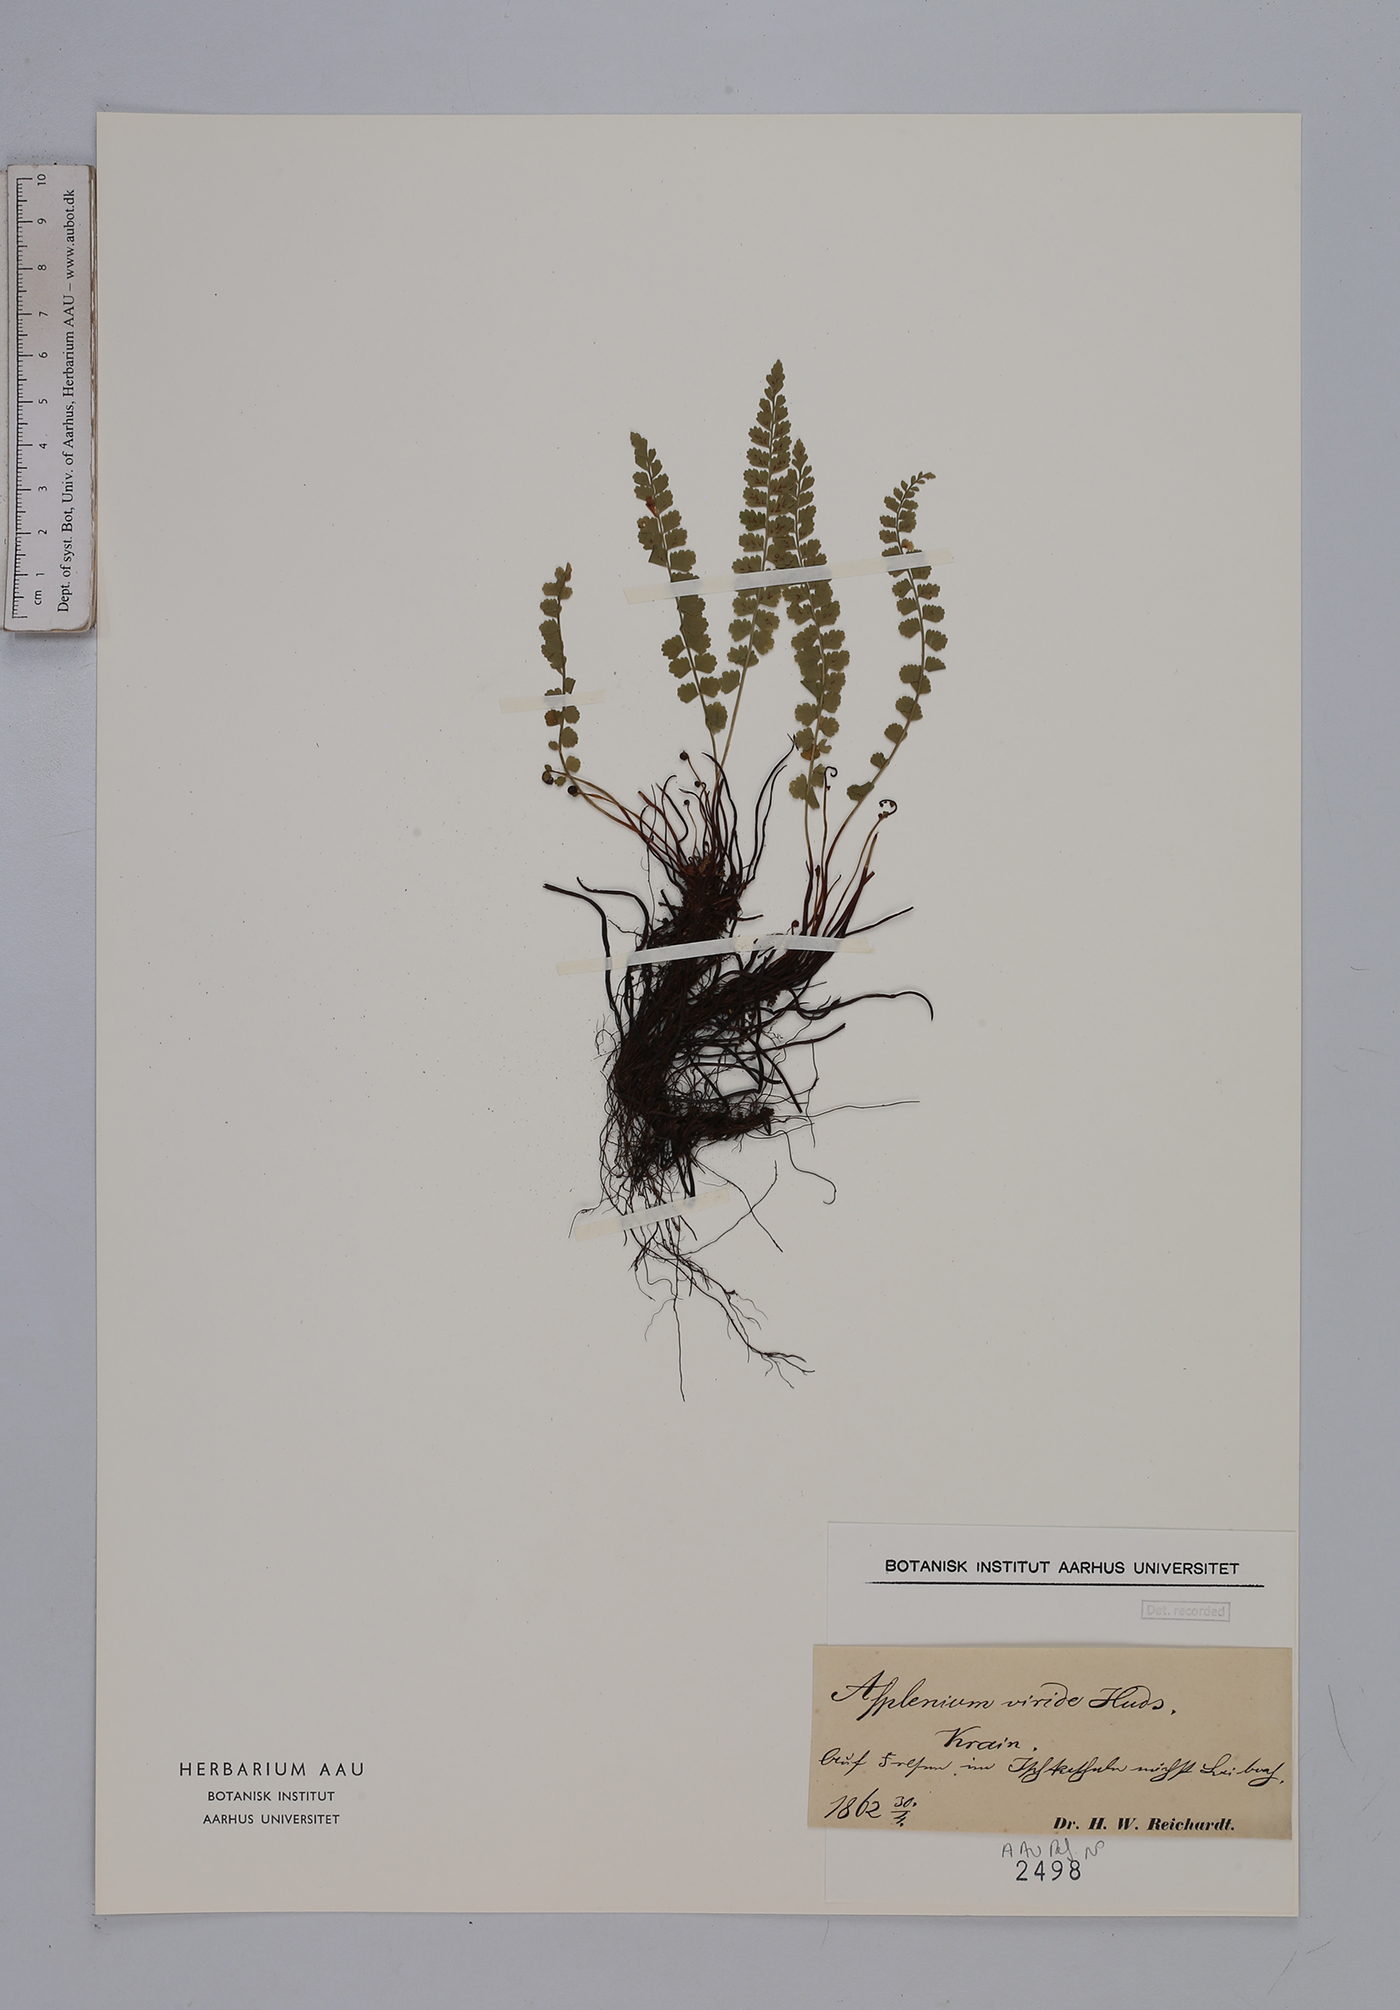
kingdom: Plantae
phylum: Tracheophyta
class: Polypodiopsida
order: Polypodiales
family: Aspleniaceae
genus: Asplenium
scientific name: Asplenium viride
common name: Green spleenwort
